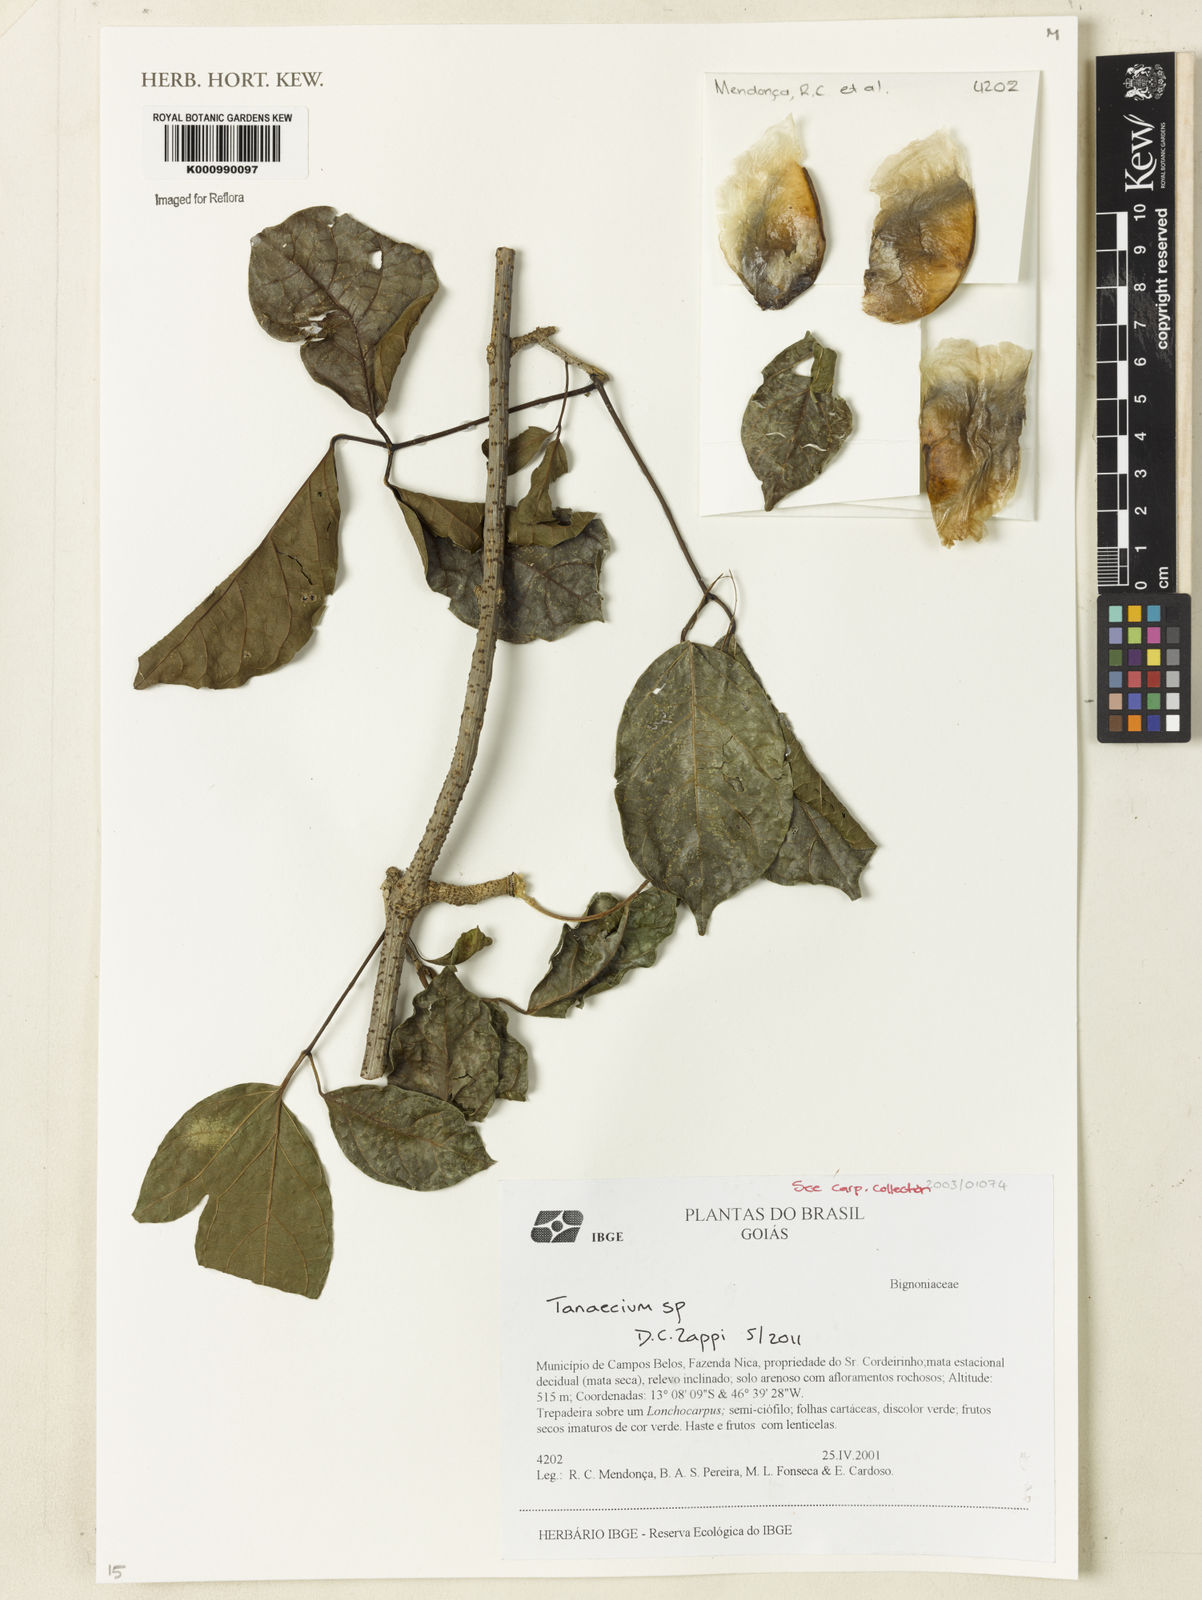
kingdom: Plantae
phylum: Tracheophyta
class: Magnoliopsida
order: Lamiales
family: Bignoniaceae
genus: Tanaecium
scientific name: Tanaecium
